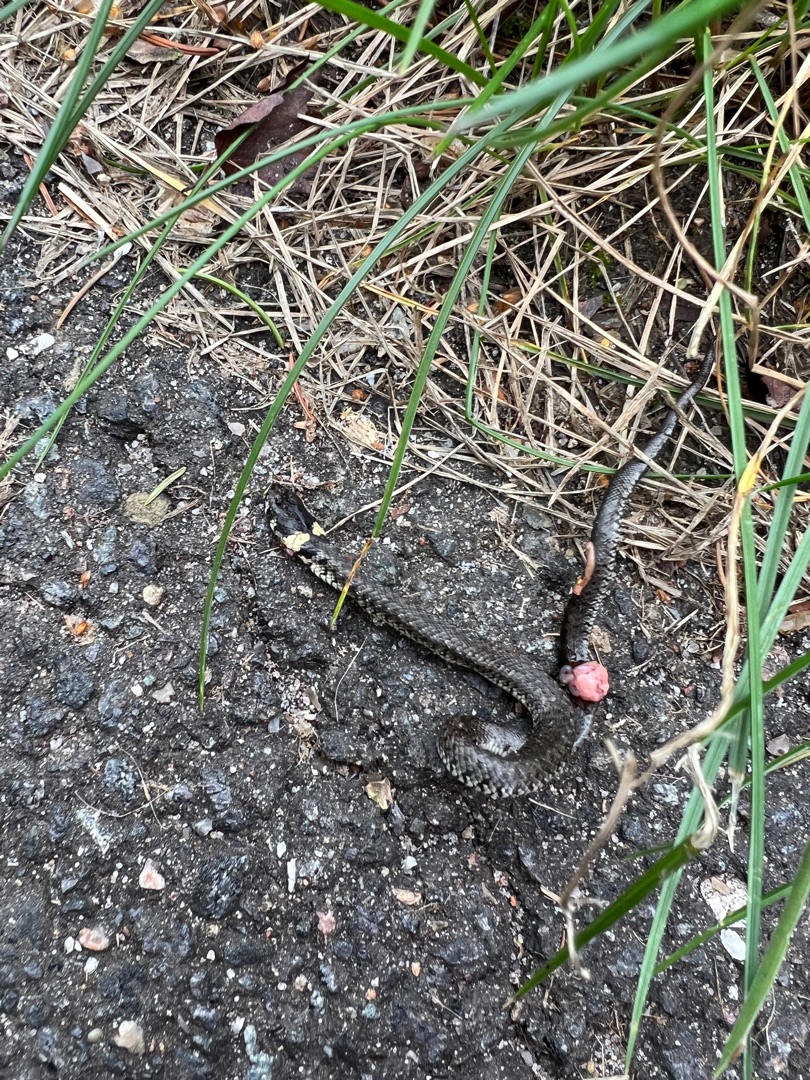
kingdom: Animalia
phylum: Chordata
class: Squamata
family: Colubridae
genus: Natrix
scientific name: Natrix natrix
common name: Snog
